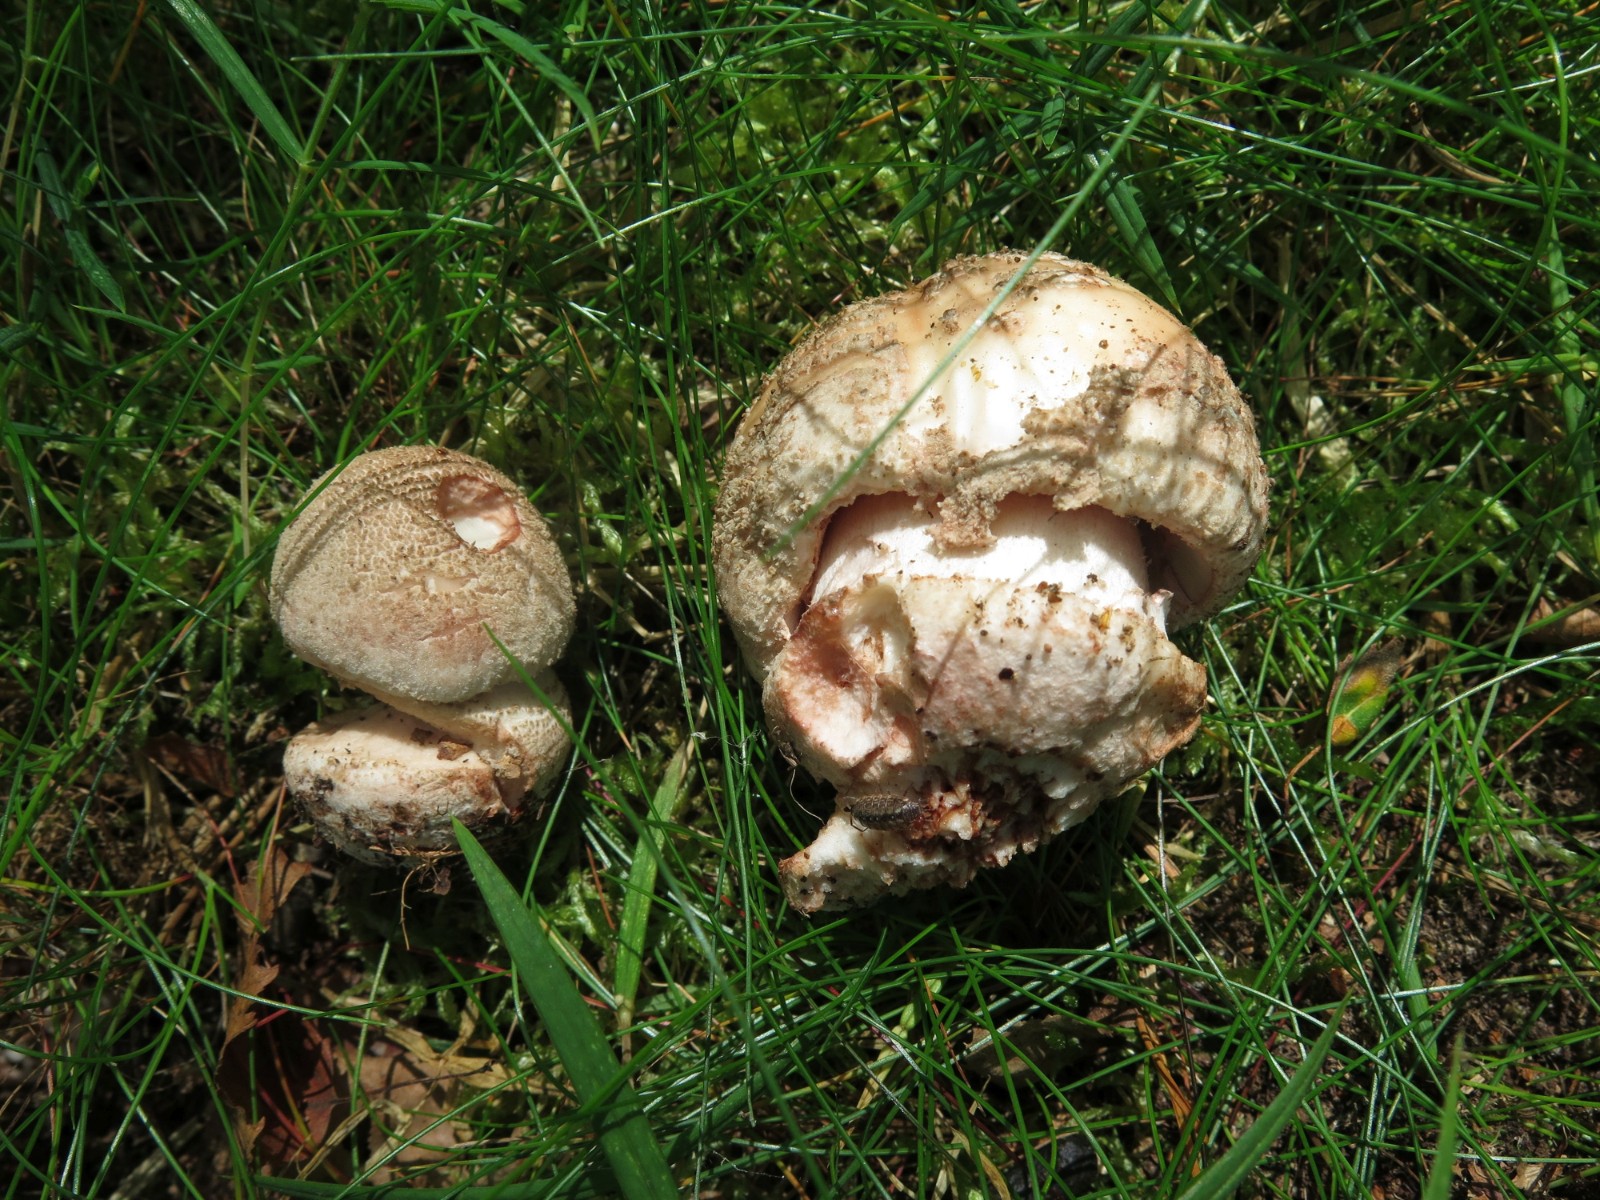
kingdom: Fungi
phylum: Basidiomycota
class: Agaricomycetes
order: Agaricales
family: Amanitaceae
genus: Amanita
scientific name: Amanita rubescens
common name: rødmende fluesvamp
